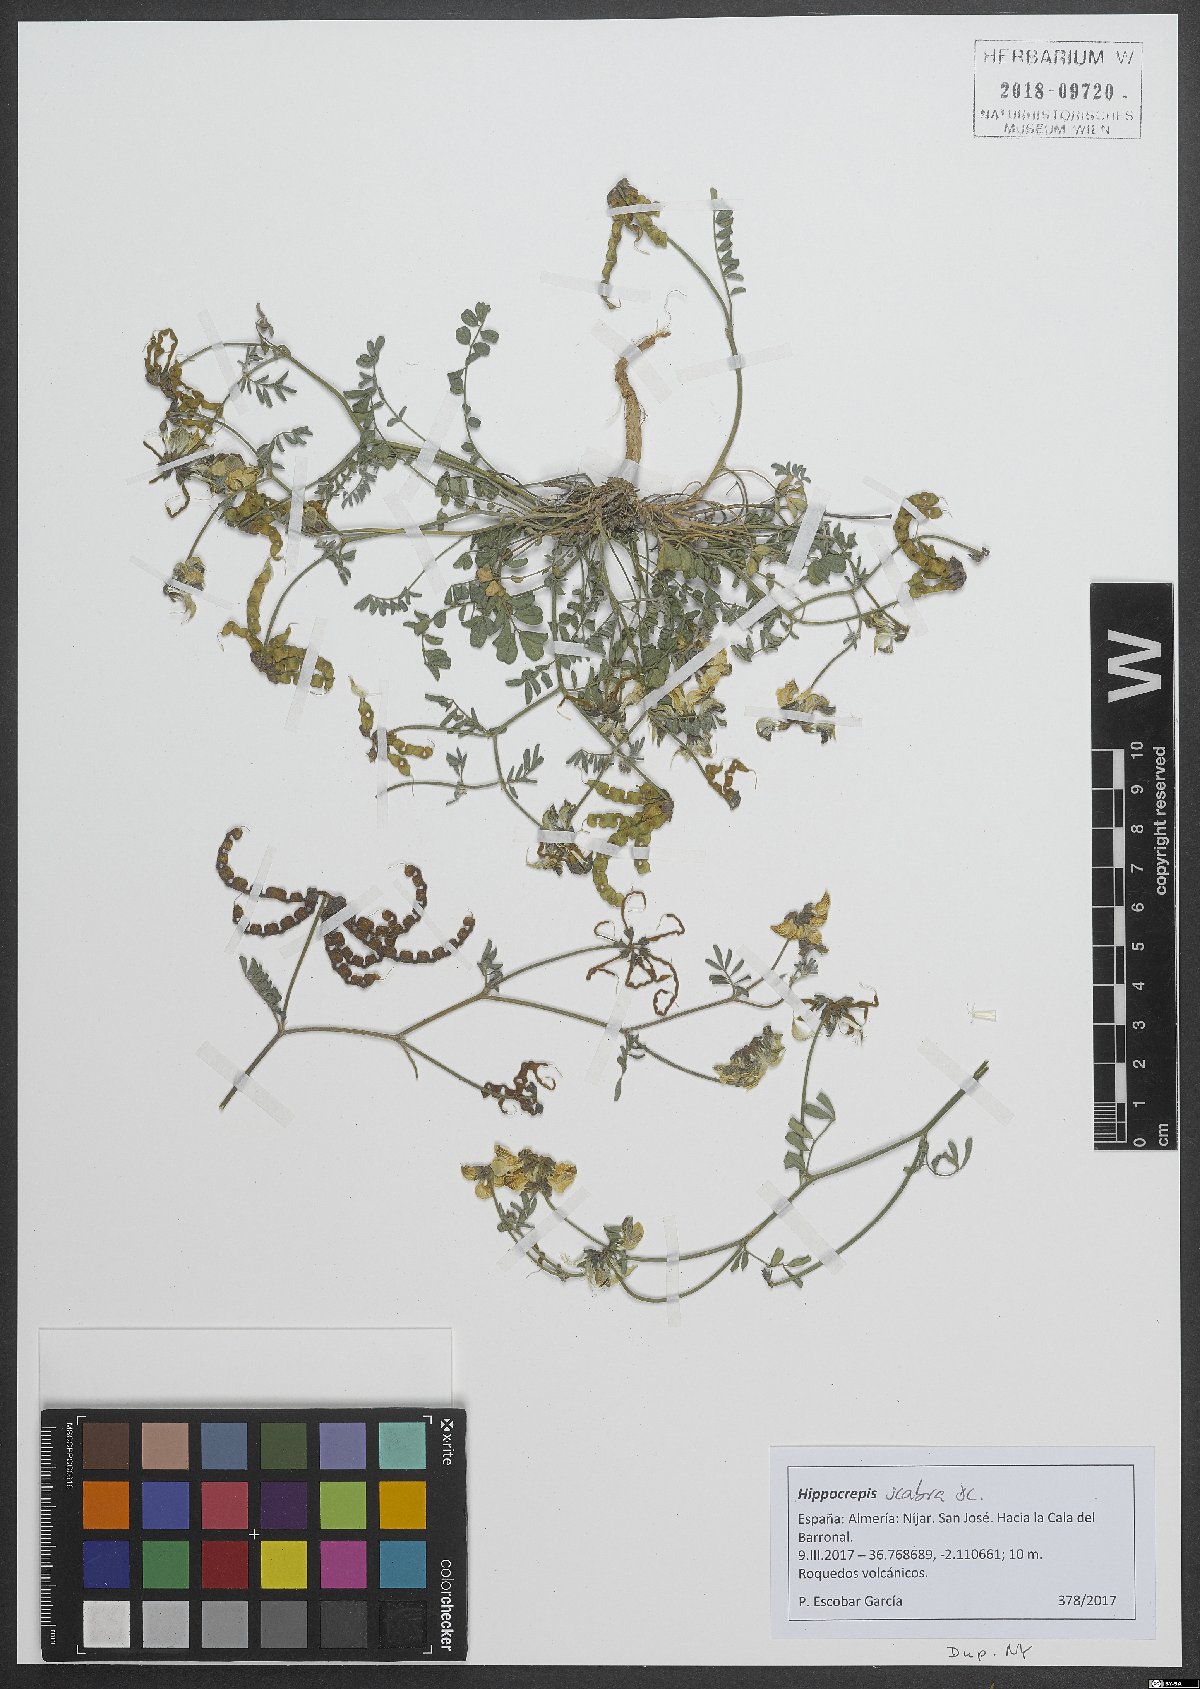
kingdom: Plantae
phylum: Tracheophyta
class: Magnoliopsida
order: Fabales
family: Fabaceae
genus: Hippocrepis
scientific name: Hippocrepis scabra
